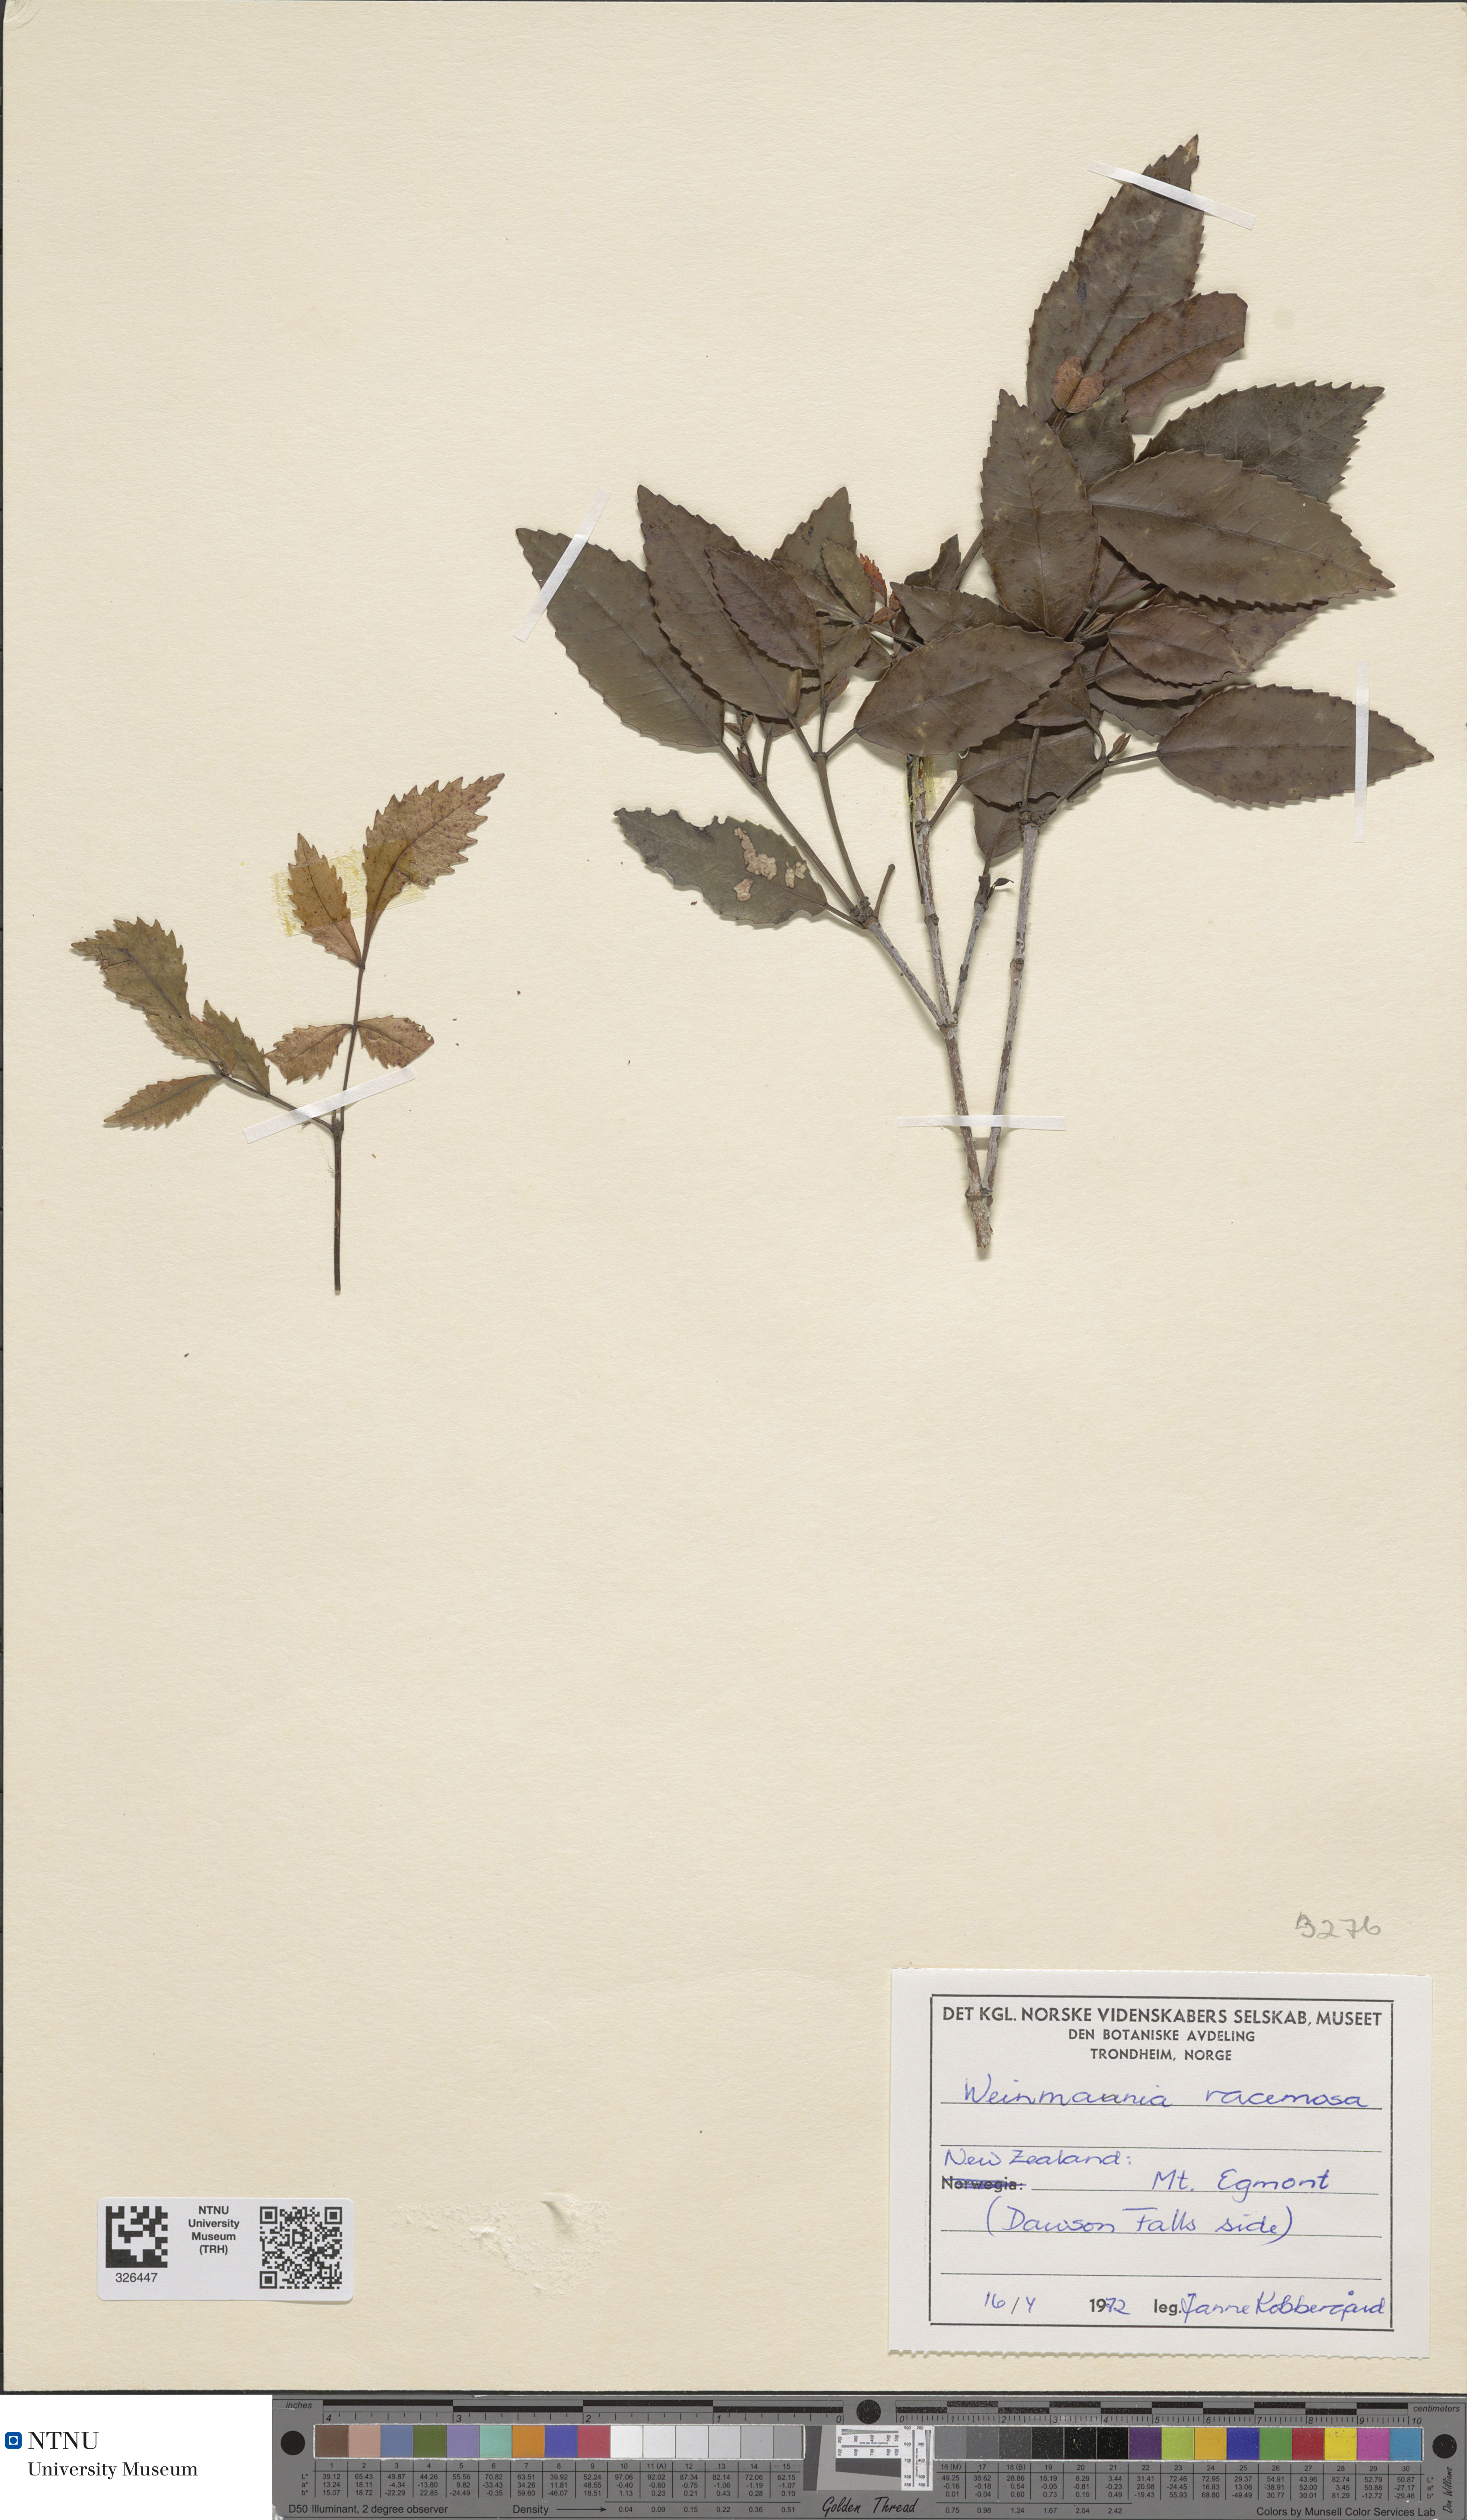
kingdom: Plantae
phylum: Tracheophyta
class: Magnoliopsida
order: Oxalidales
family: Cunoniaceae
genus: Pterophylla
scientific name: Pterophylla racemosa
